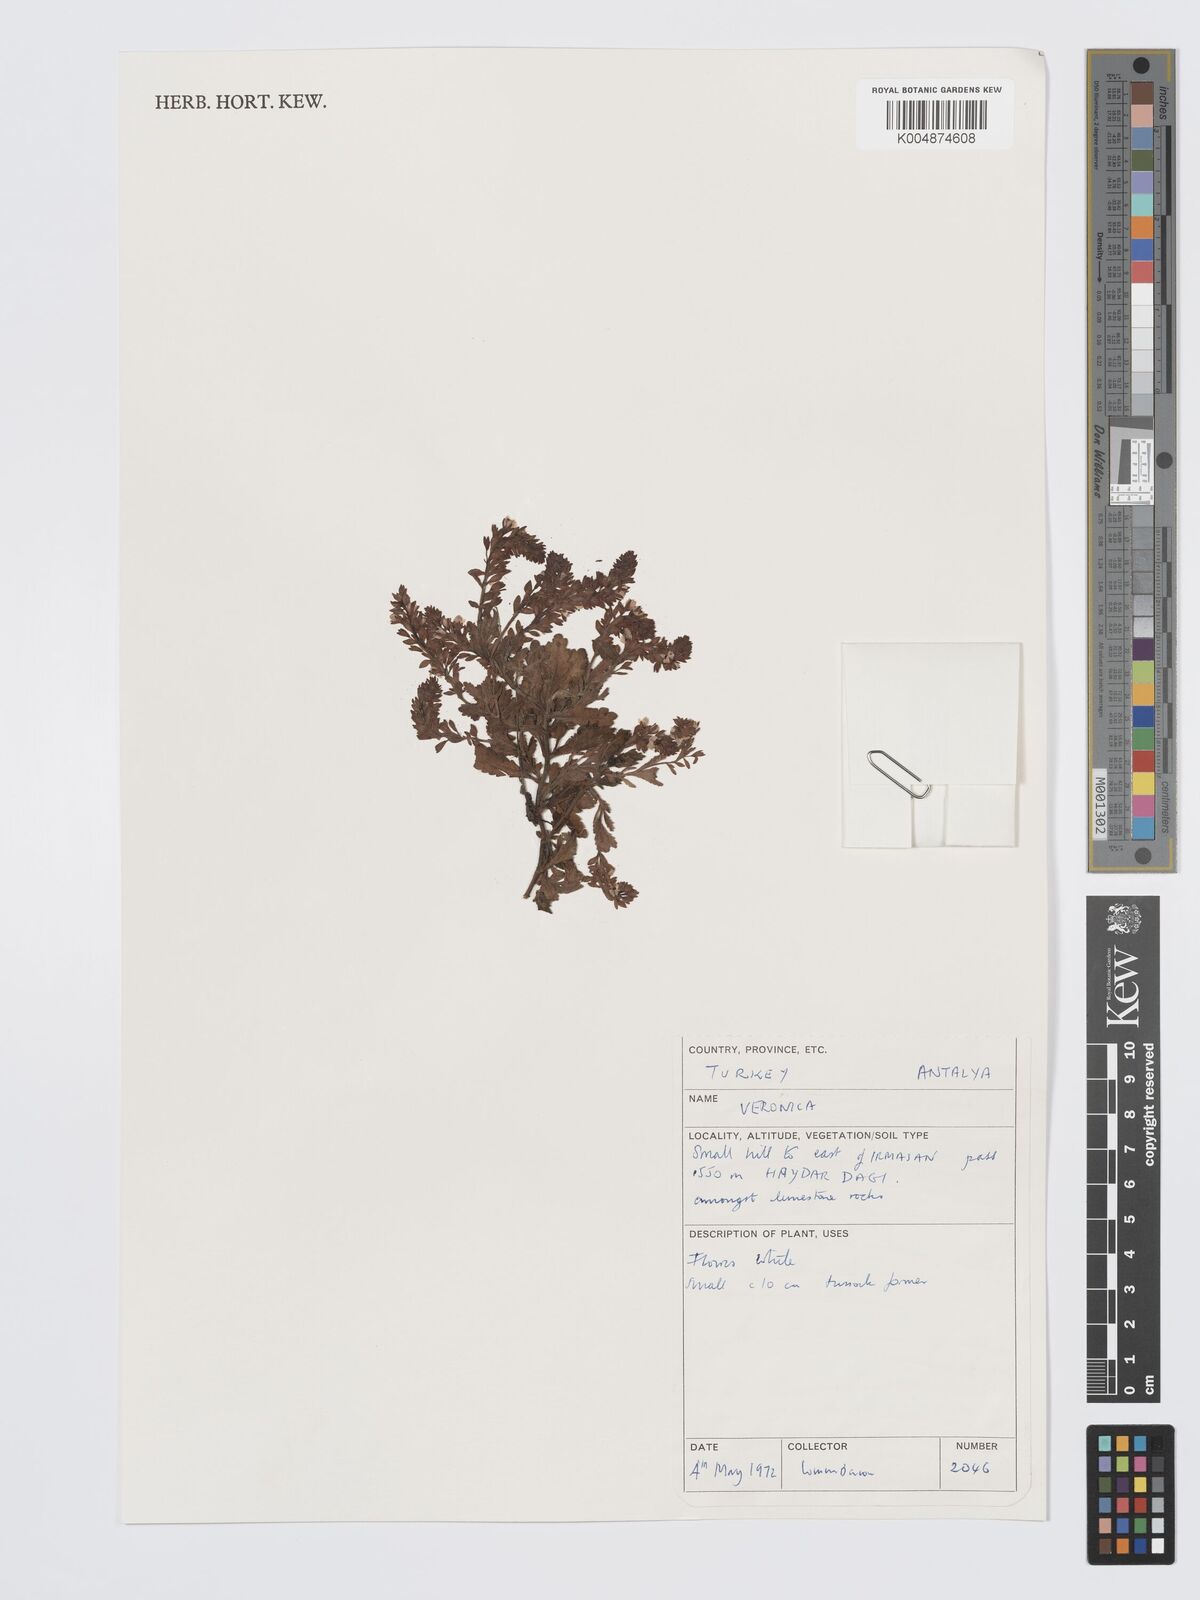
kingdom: Plantae
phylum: Tracheophyta
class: Magnoliopsida
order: Lamiales
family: Plantaginaceae
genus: Veronica
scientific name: Veronica
